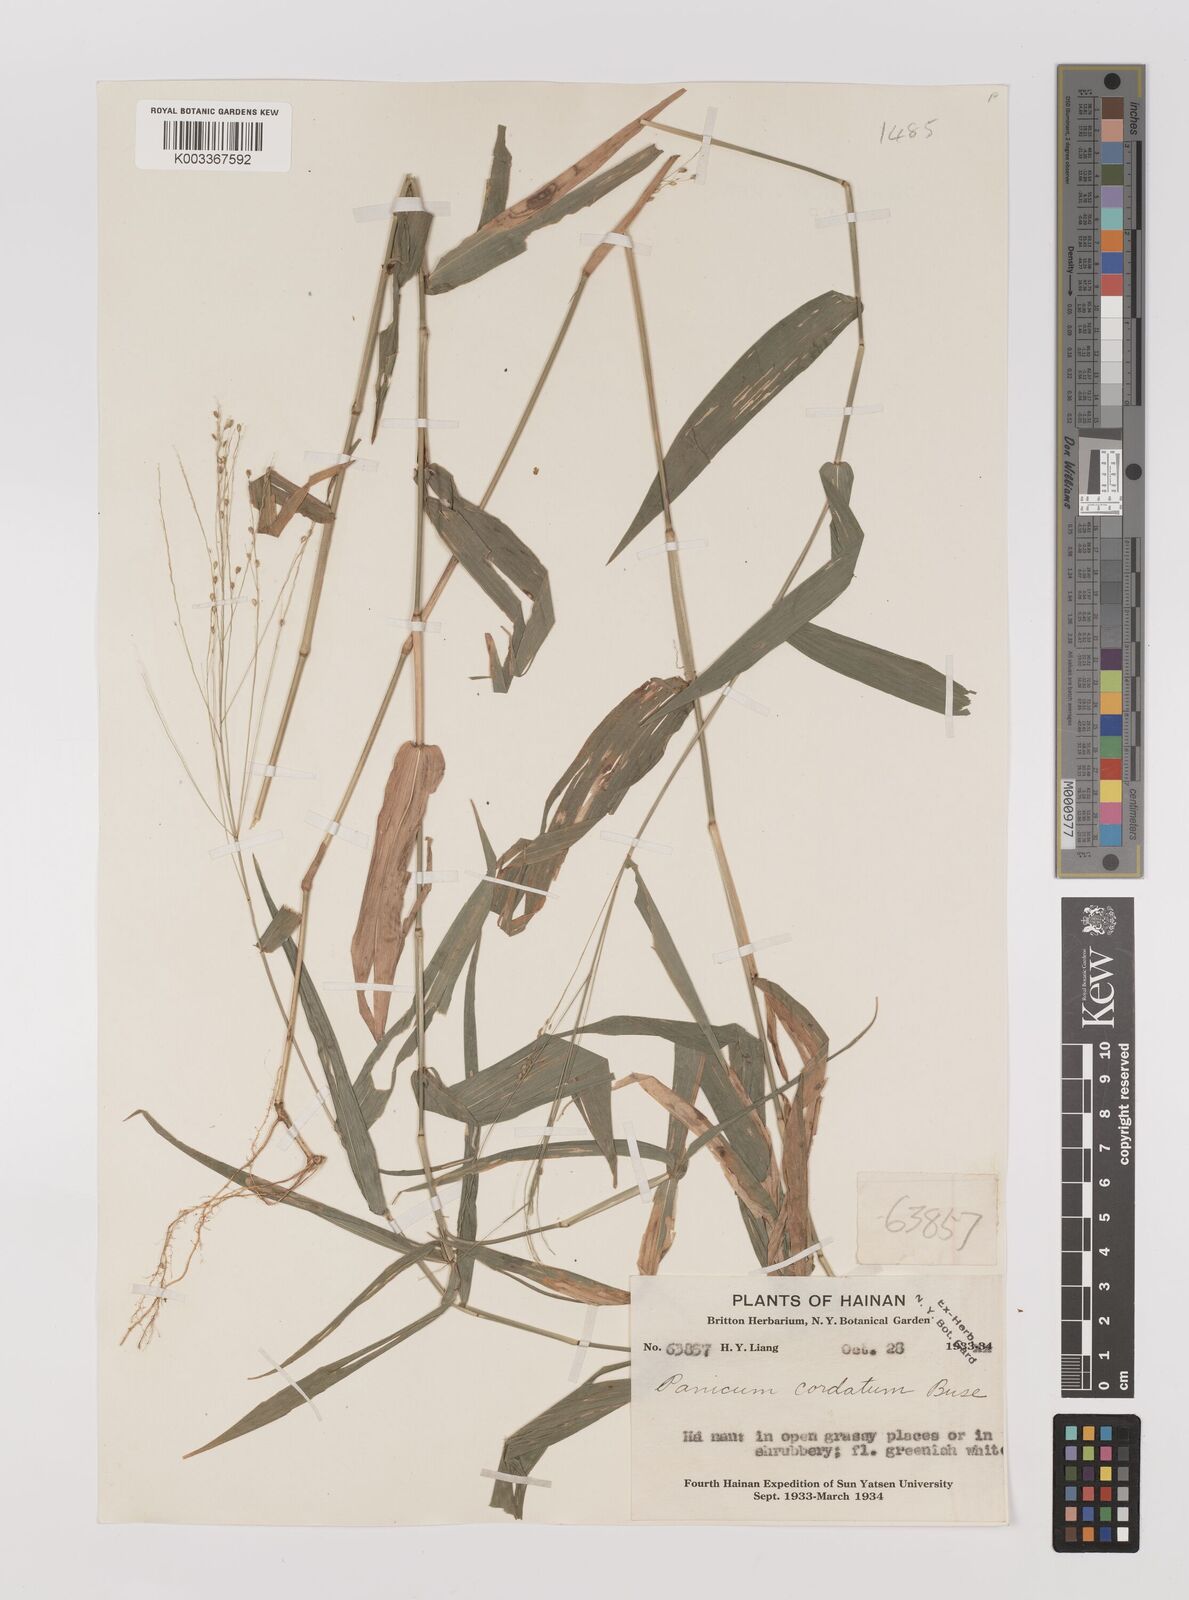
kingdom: Plantae
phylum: Tracheophyta
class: Liliopsida
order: Poales
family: Poaceae
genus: Panicum
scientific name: Panicum notatum
